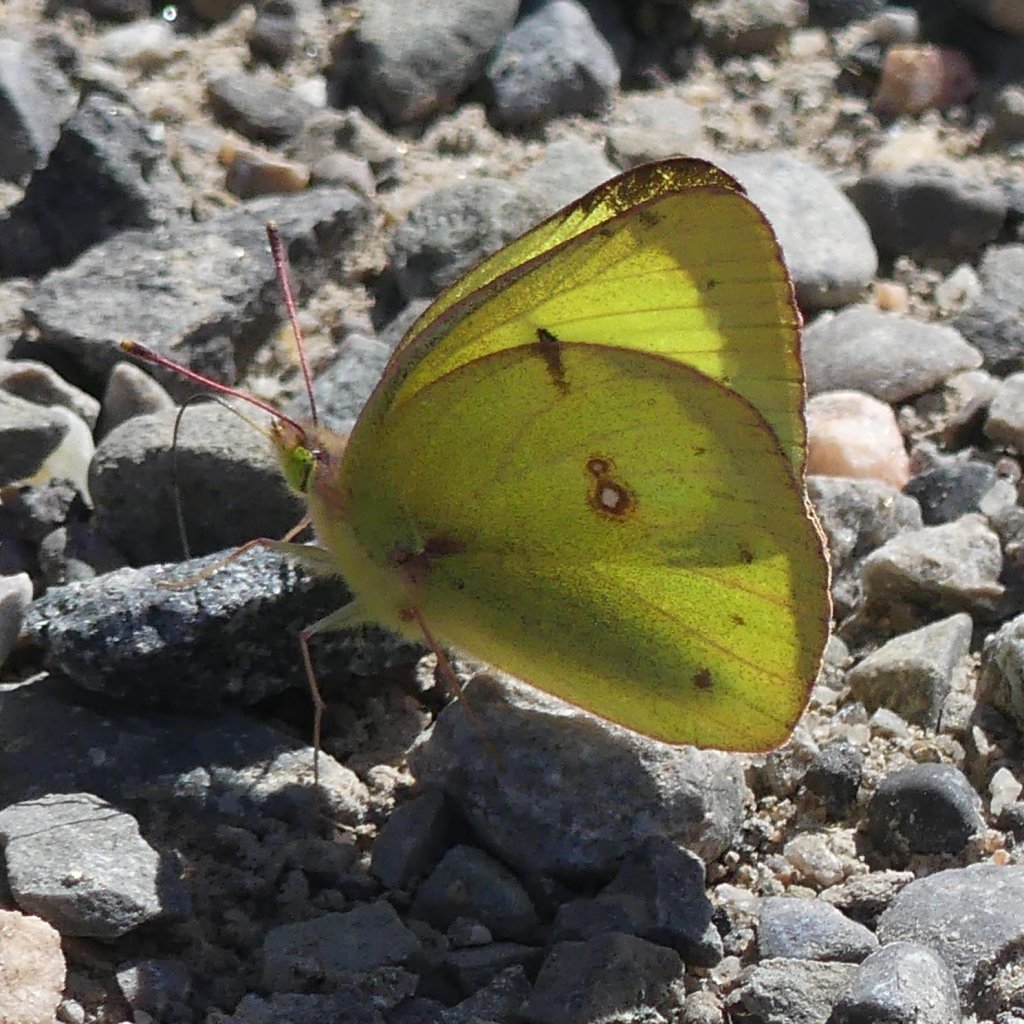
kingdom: Animalia
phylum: Arthropoda
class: Insecta
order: Lepidoptera
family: Pieridae
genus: Colias
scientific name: Colias philodice
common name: Clouded Sulphur
